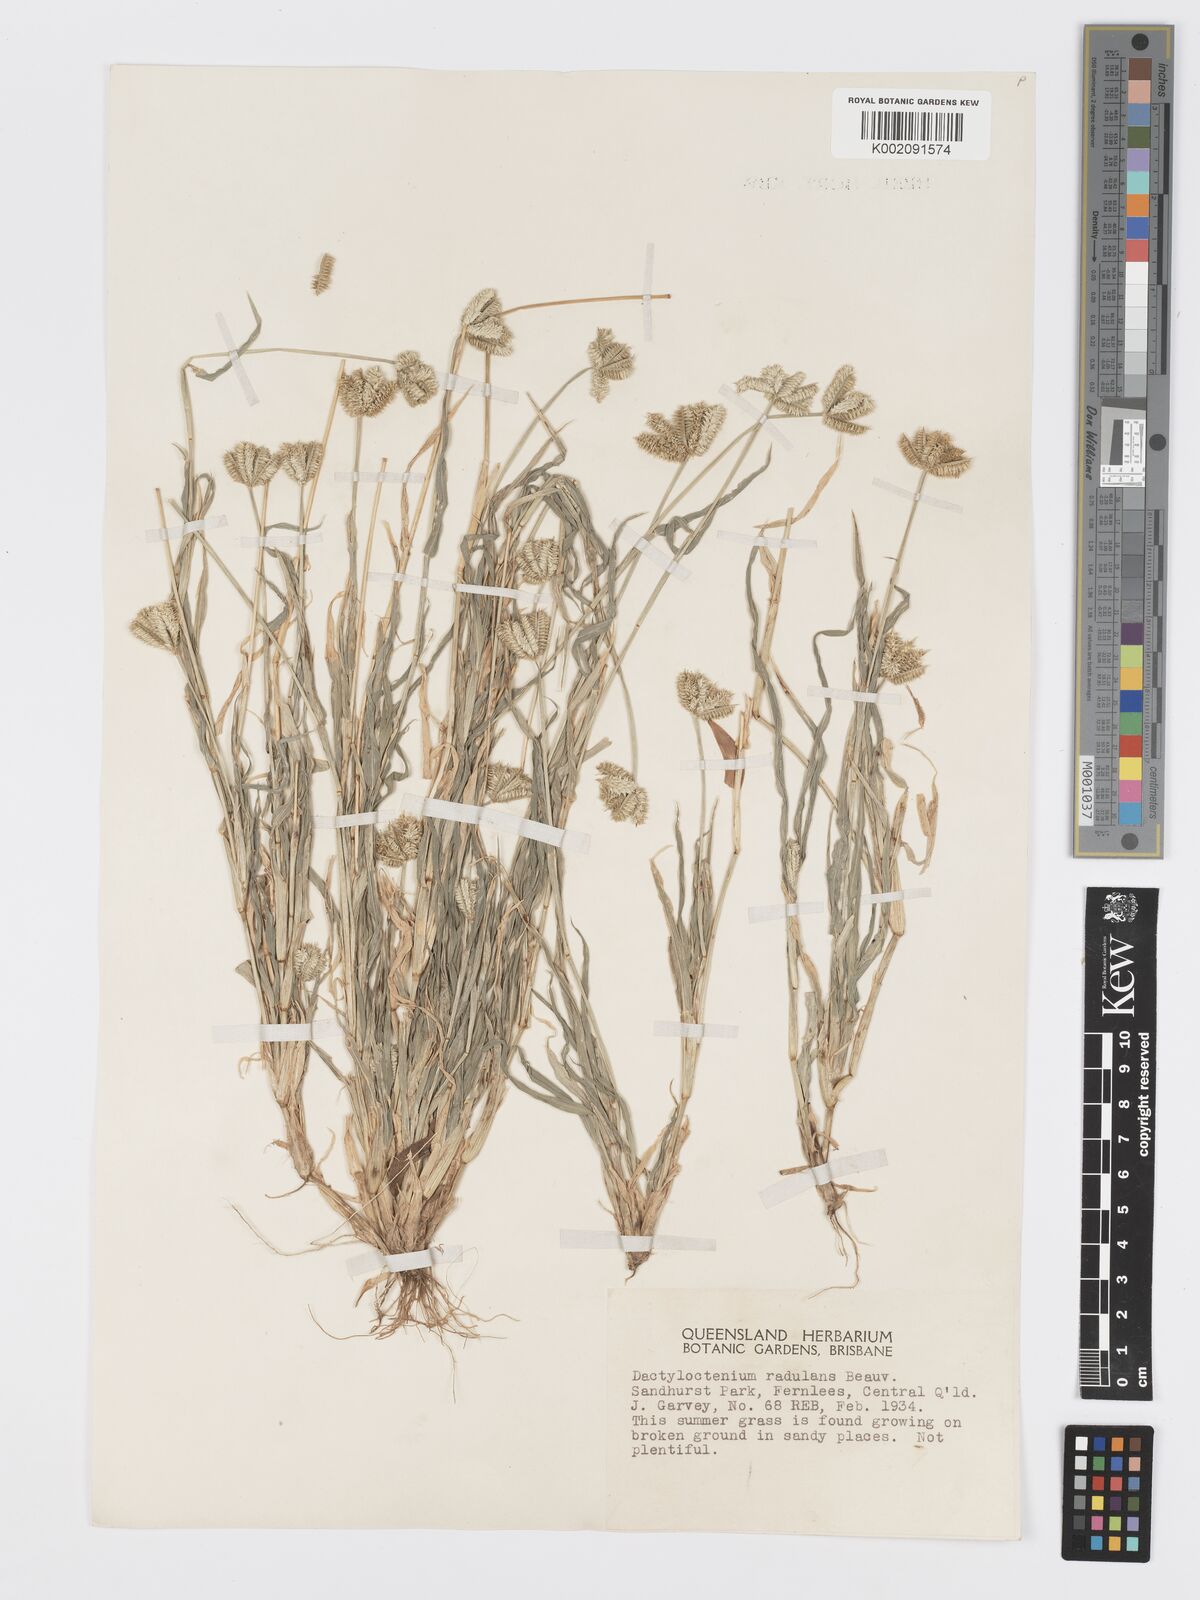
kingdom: Plantae
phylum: Tracheophyta
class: Liliopsida
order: Poales
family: Poaceae
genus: Dactyloctenium
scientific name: Dactyloctenium radulans
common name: Button-grass
